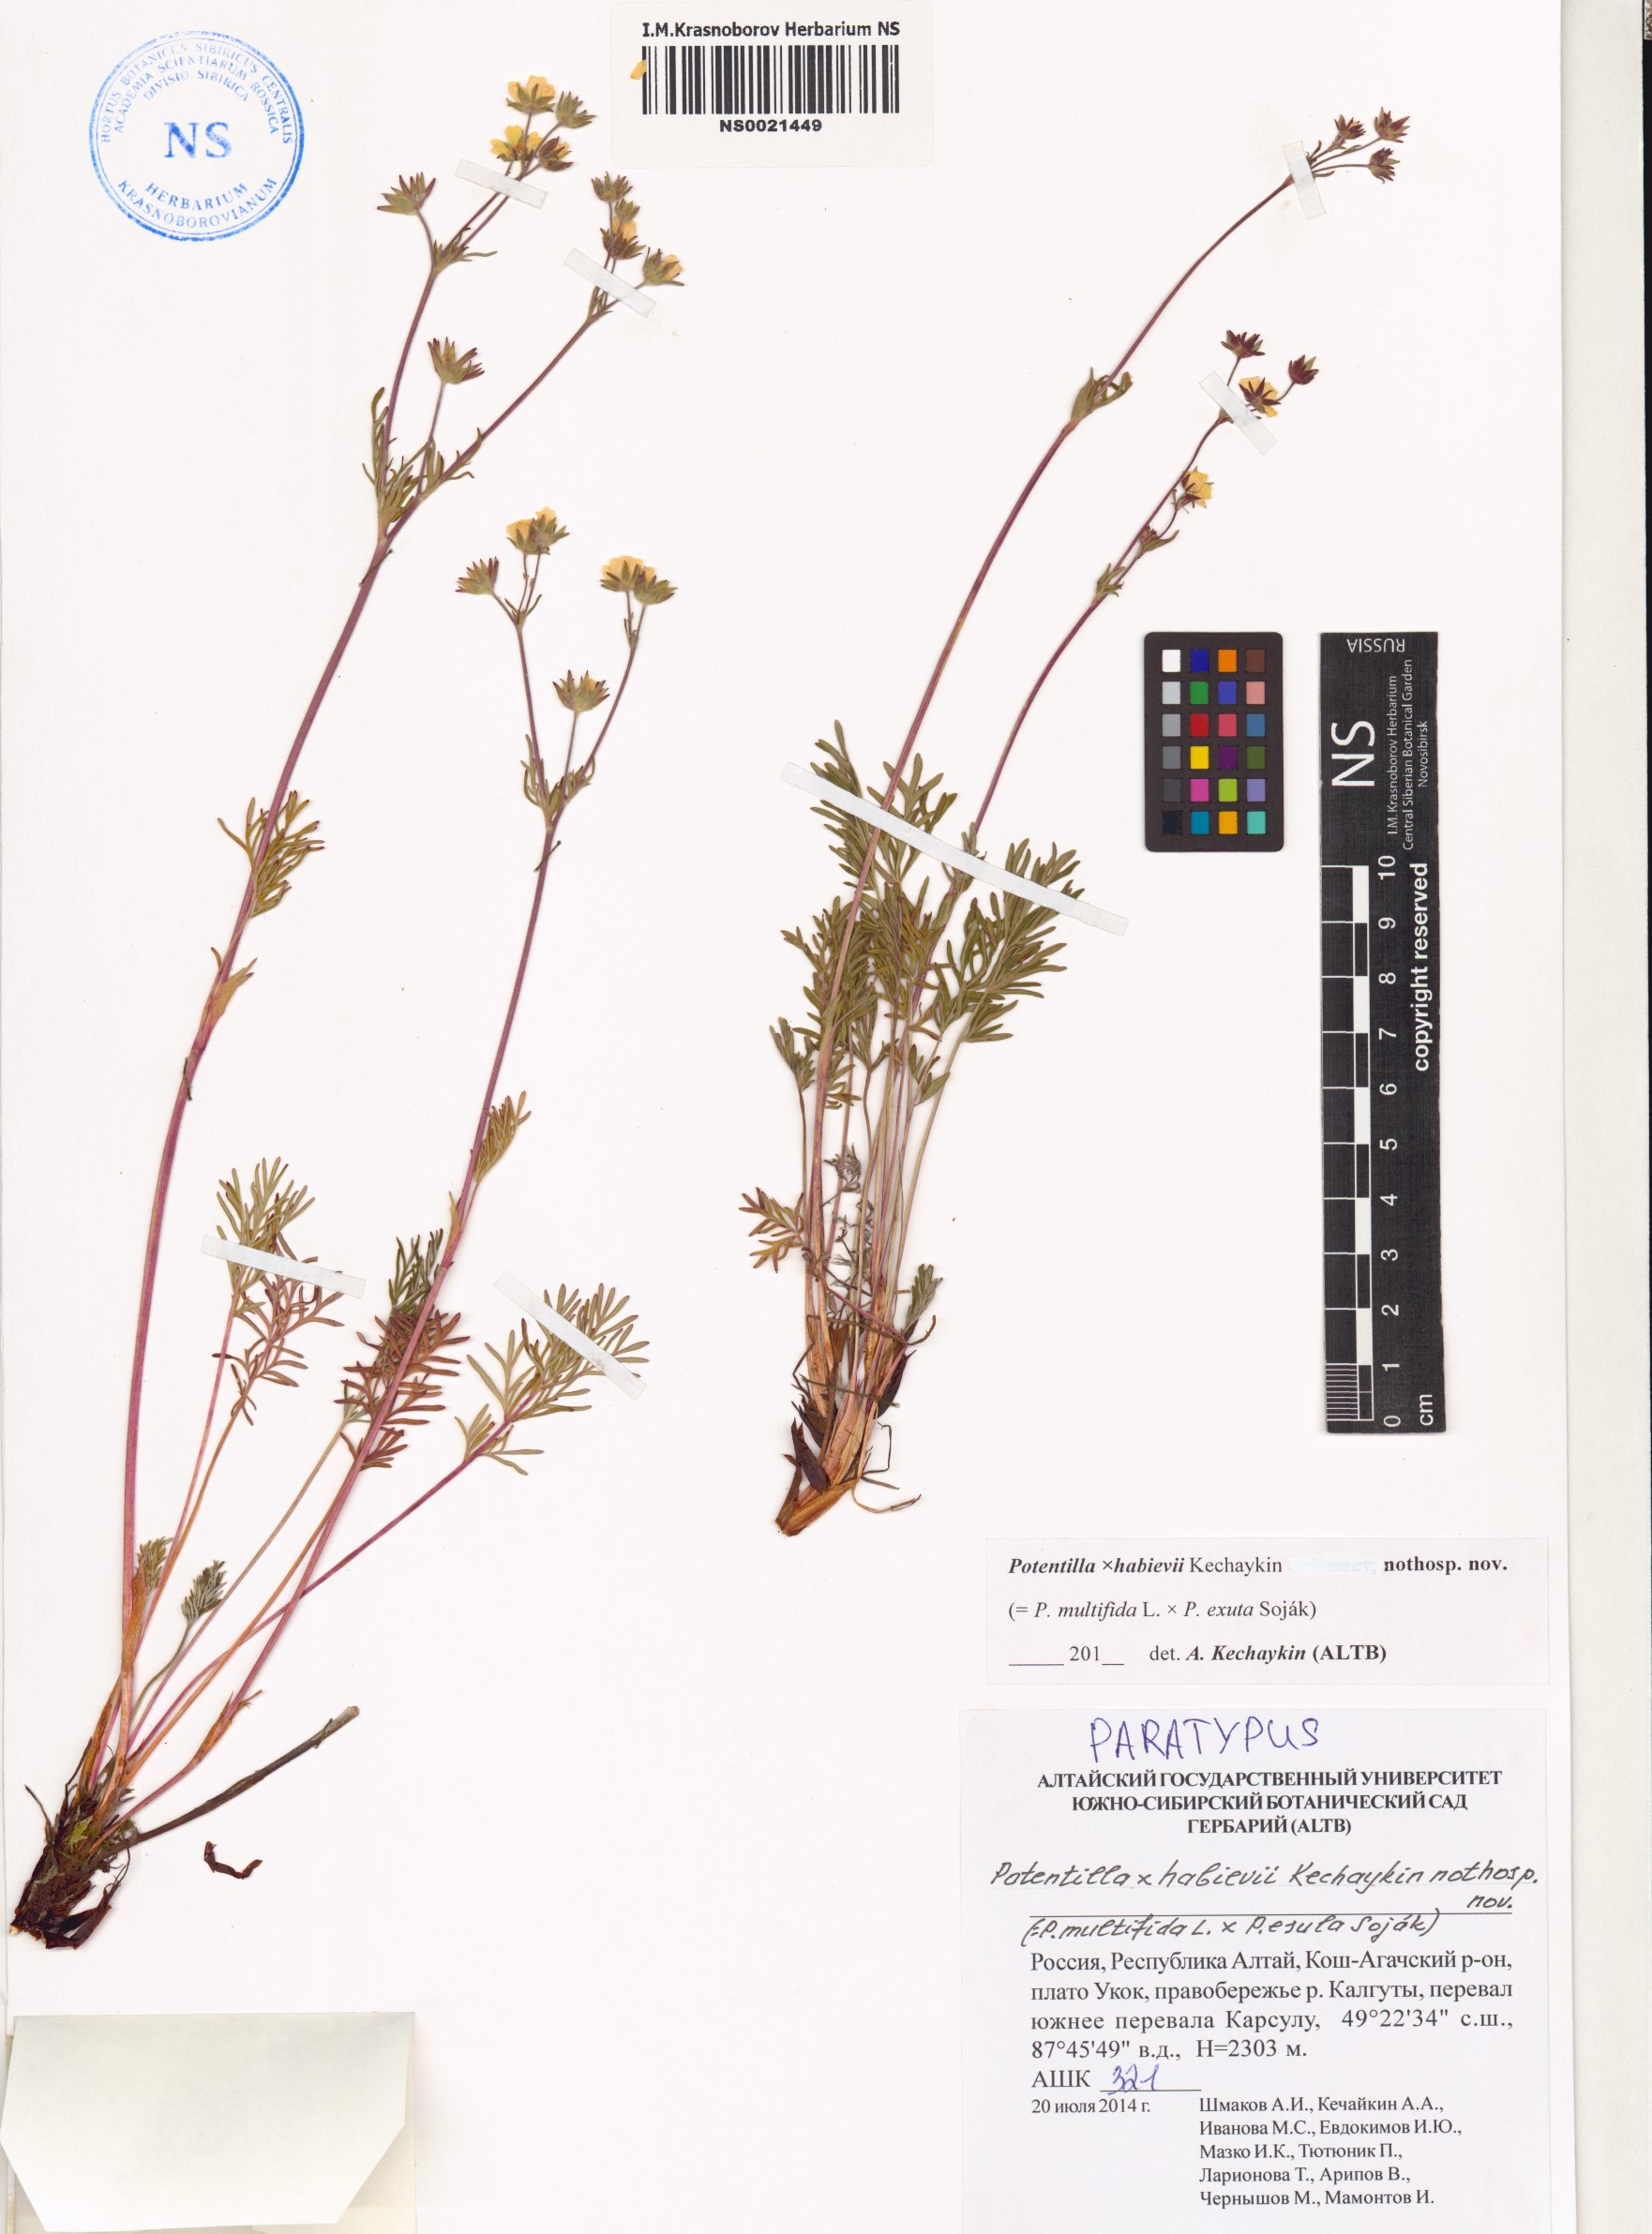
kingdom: Plantae
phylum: Tracheophyta
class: Magnoliopsida
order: Rosales
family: Rosaceae
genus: Potentilla
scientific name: Potentilla habievii
